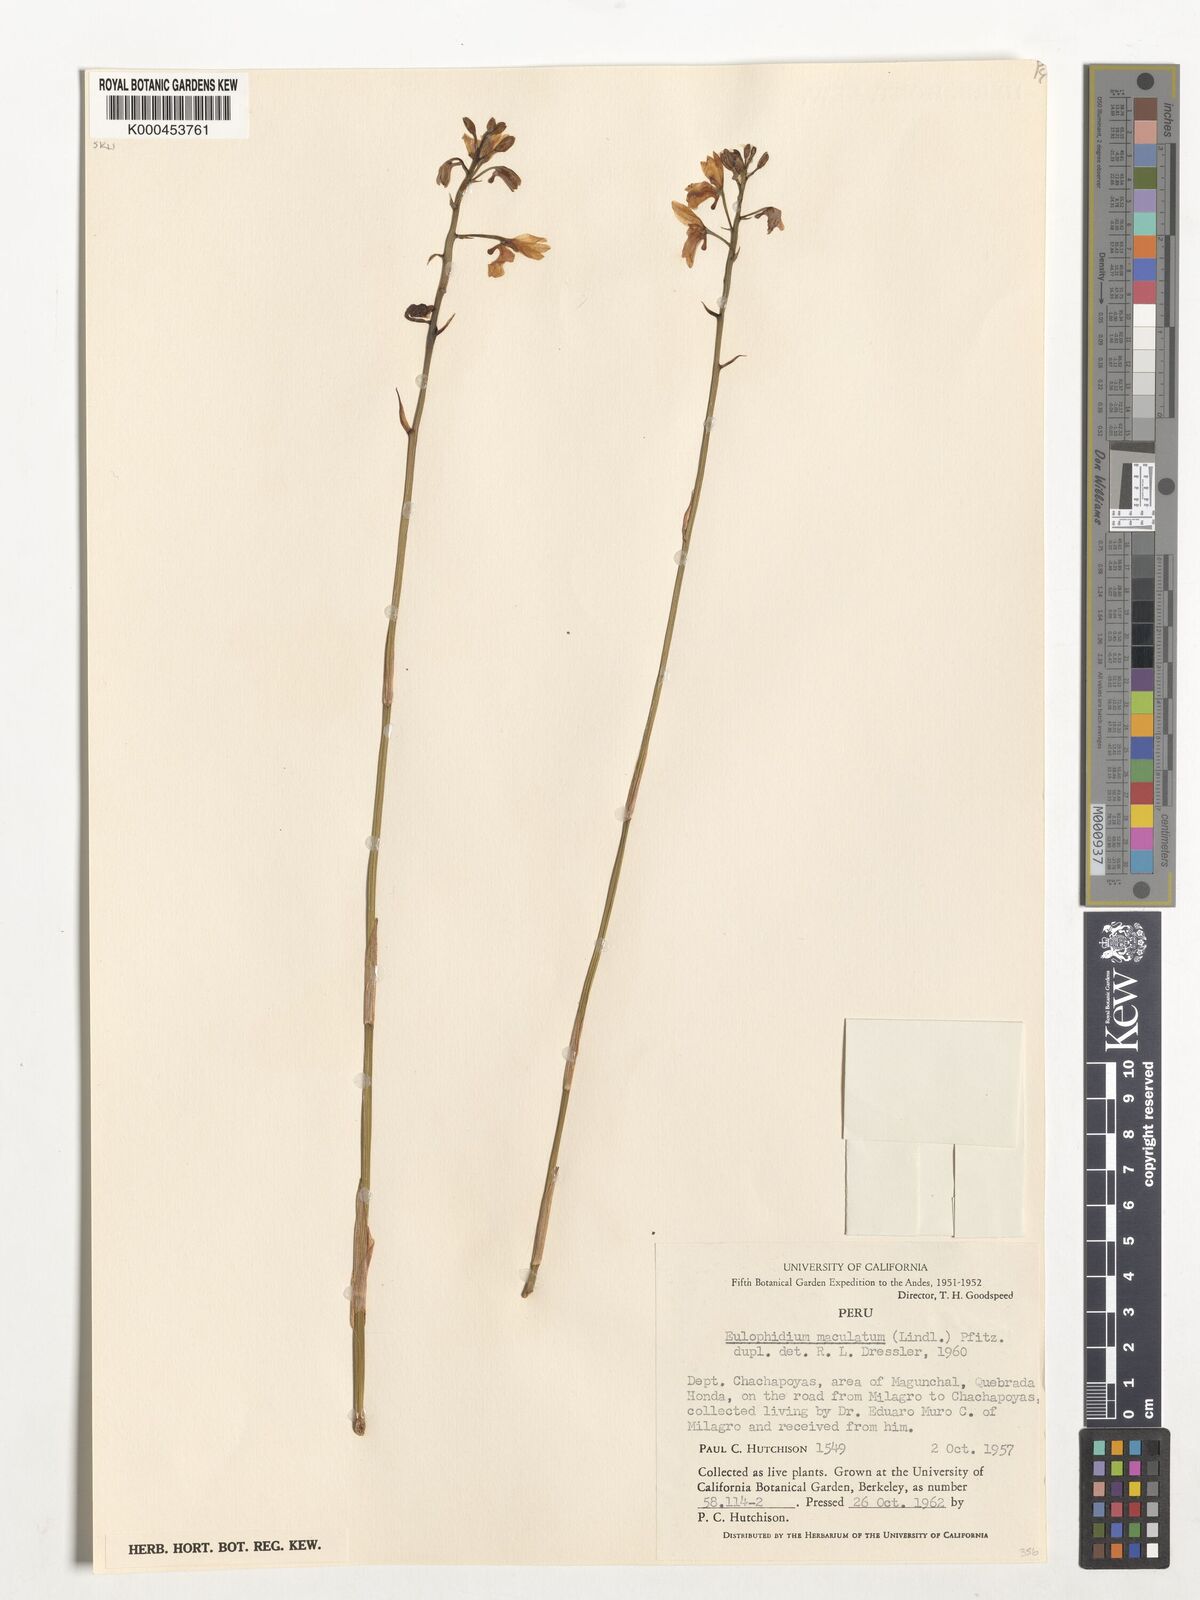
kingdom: Plantae
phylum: Tracheophyta
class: Liliopsida
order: Asparagales
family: Orchidaceae
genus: Eulophia
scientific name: Eulophia maculata
